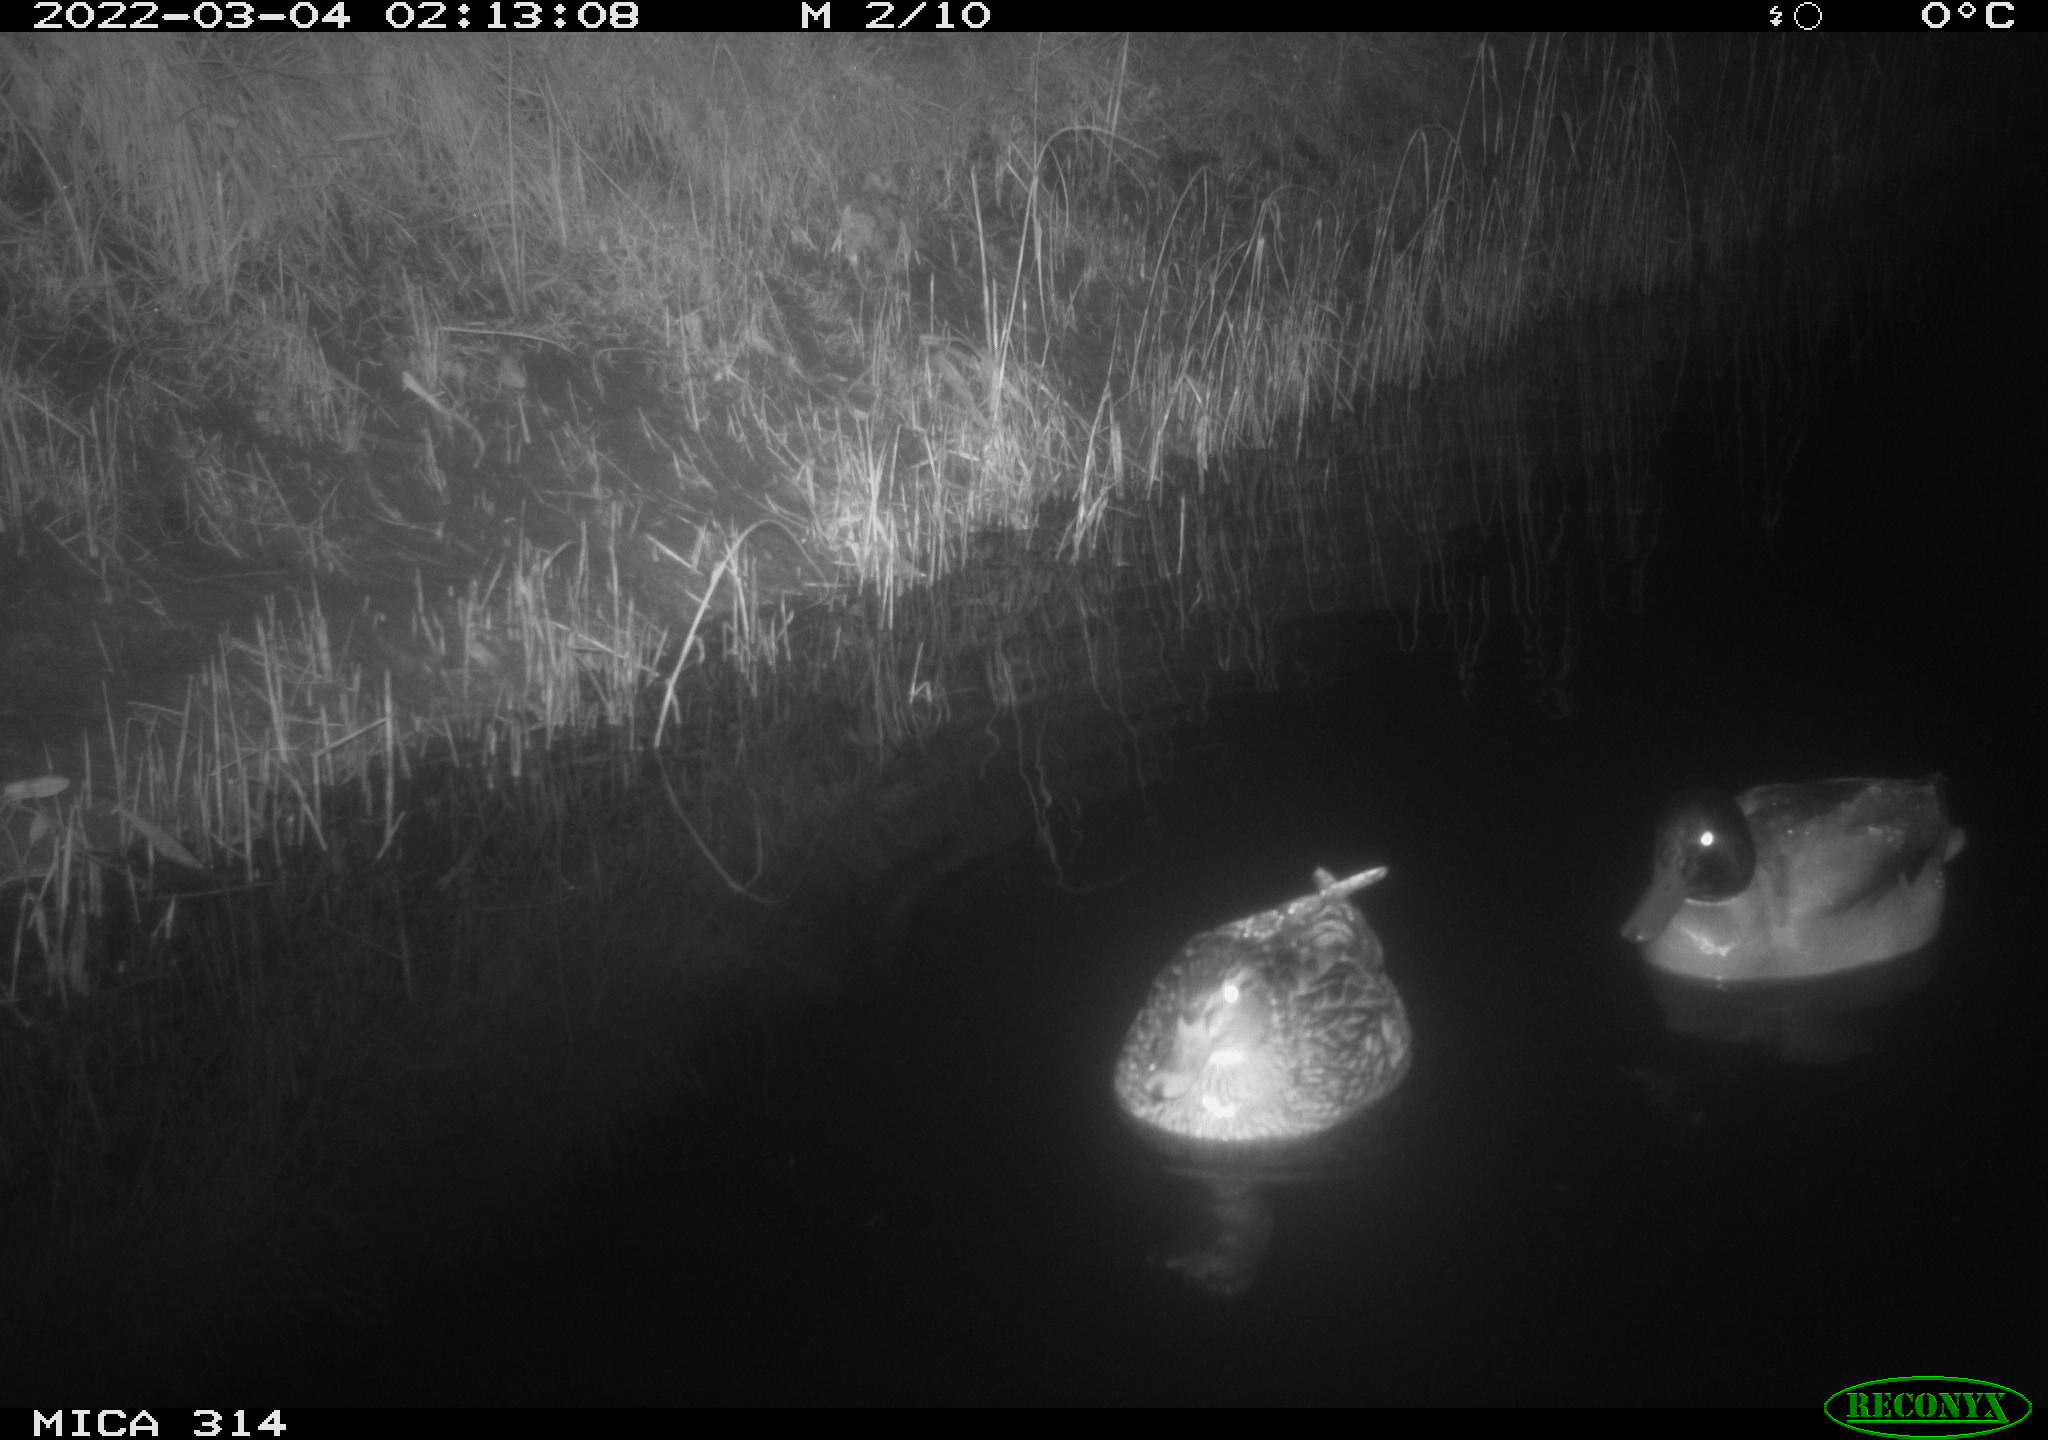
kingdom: Animalia
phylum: Chordata
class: Aves
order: Anseriformes
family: Anatidae
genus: Anas
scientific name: Anas platyrhynchos
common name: Mallard
